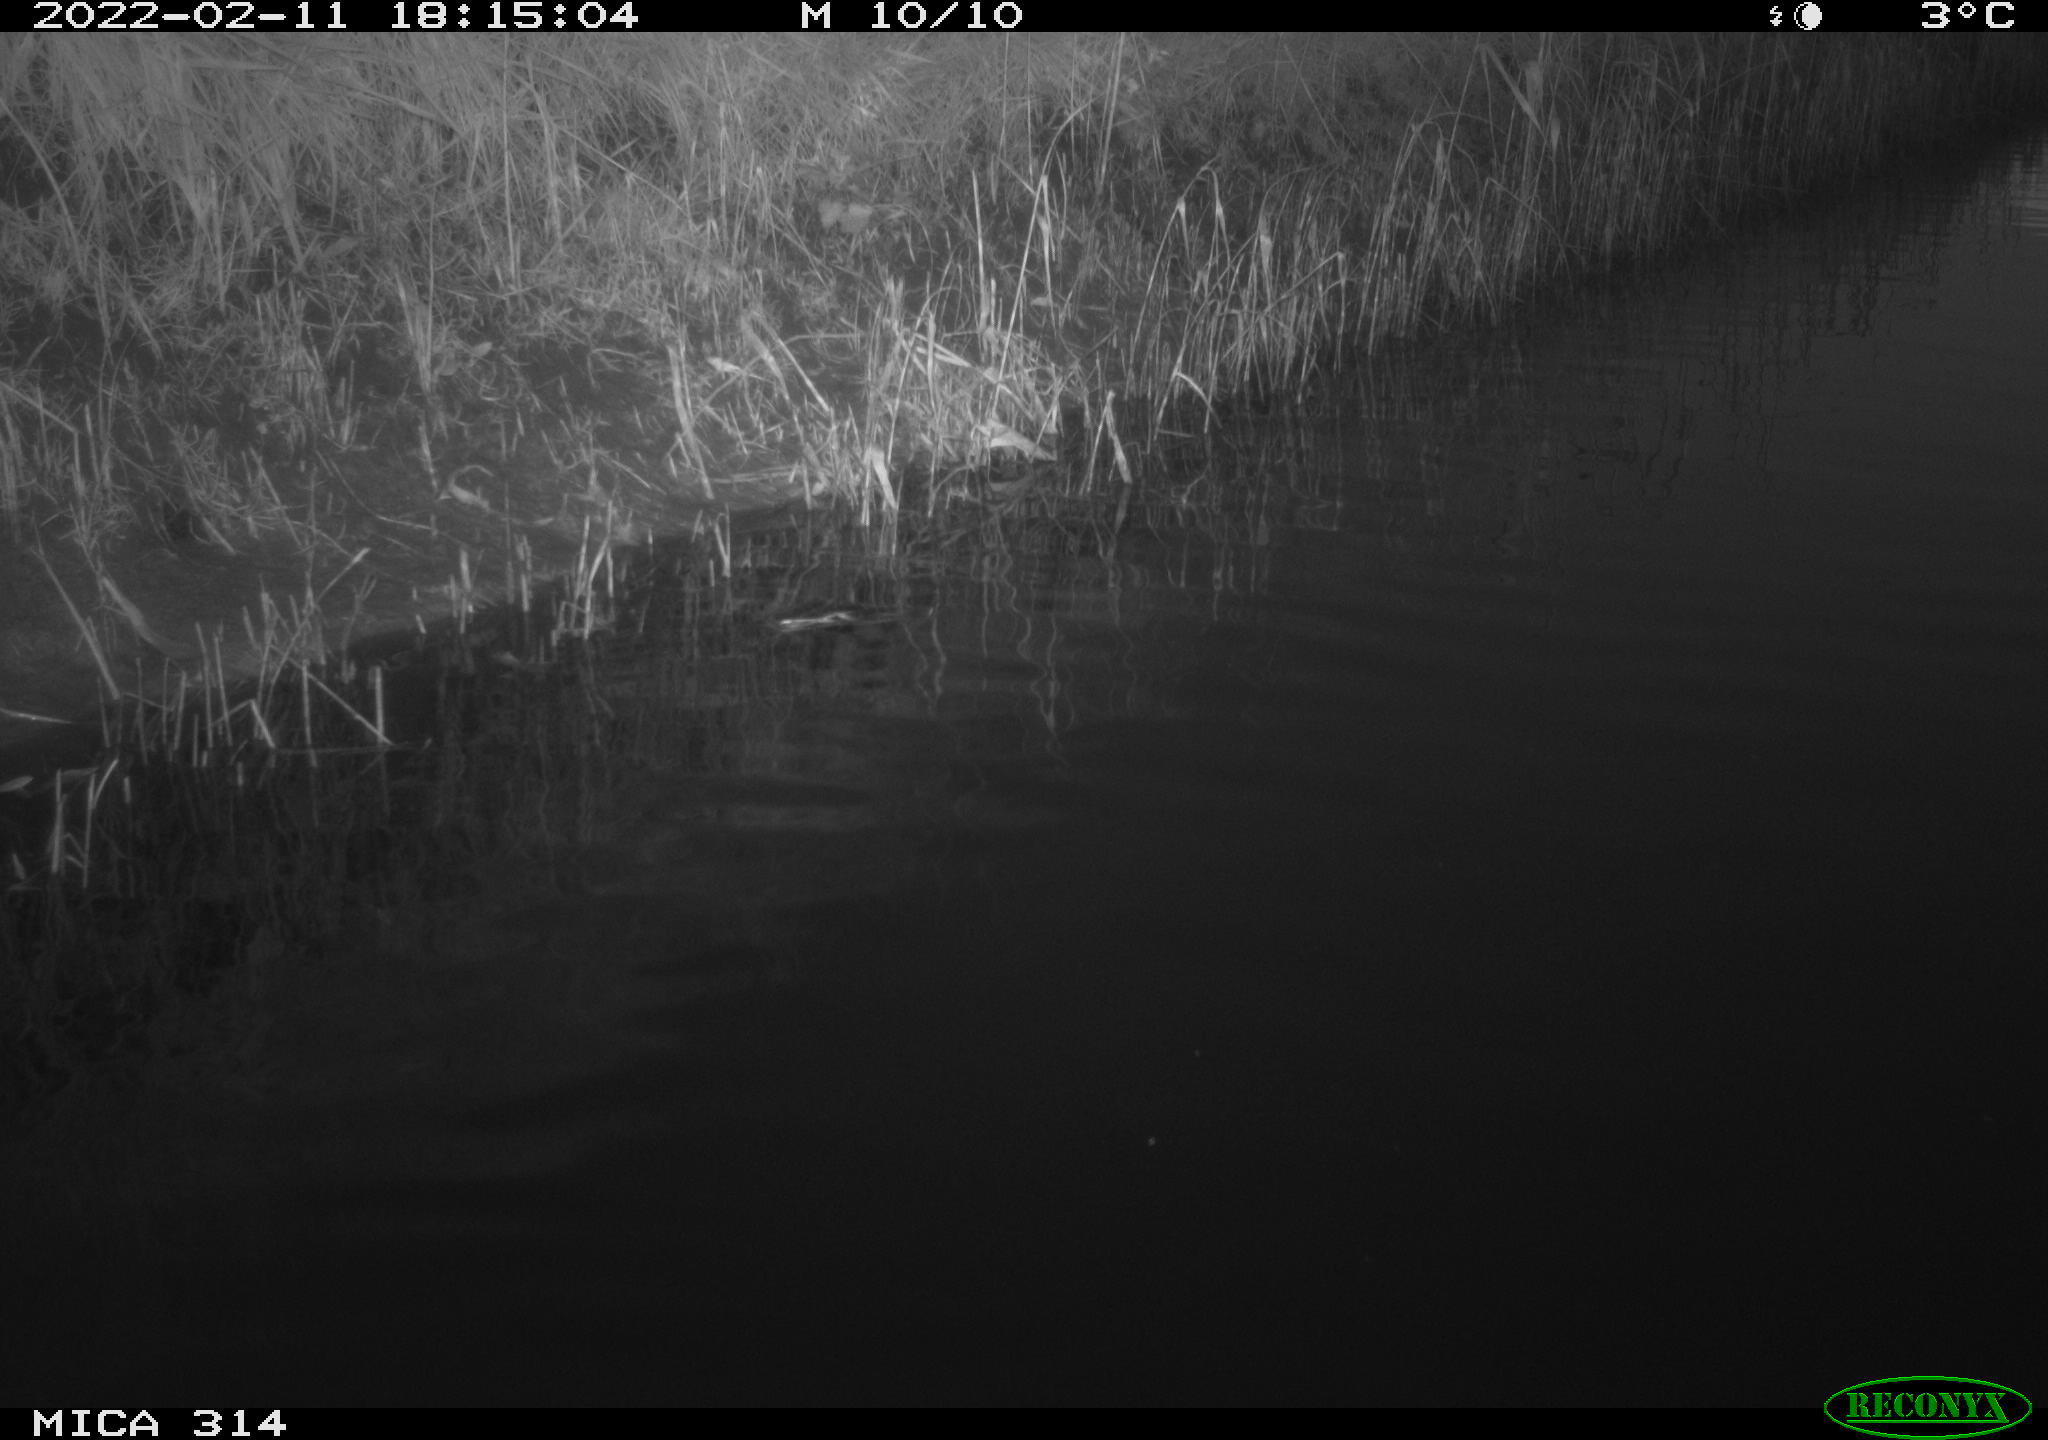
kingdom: Animalia
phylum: Chordata
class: Aves
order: Gruiformes
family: Rallidae
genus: Gallinula
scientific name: Gallinula chloropus
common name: Common moorhen
